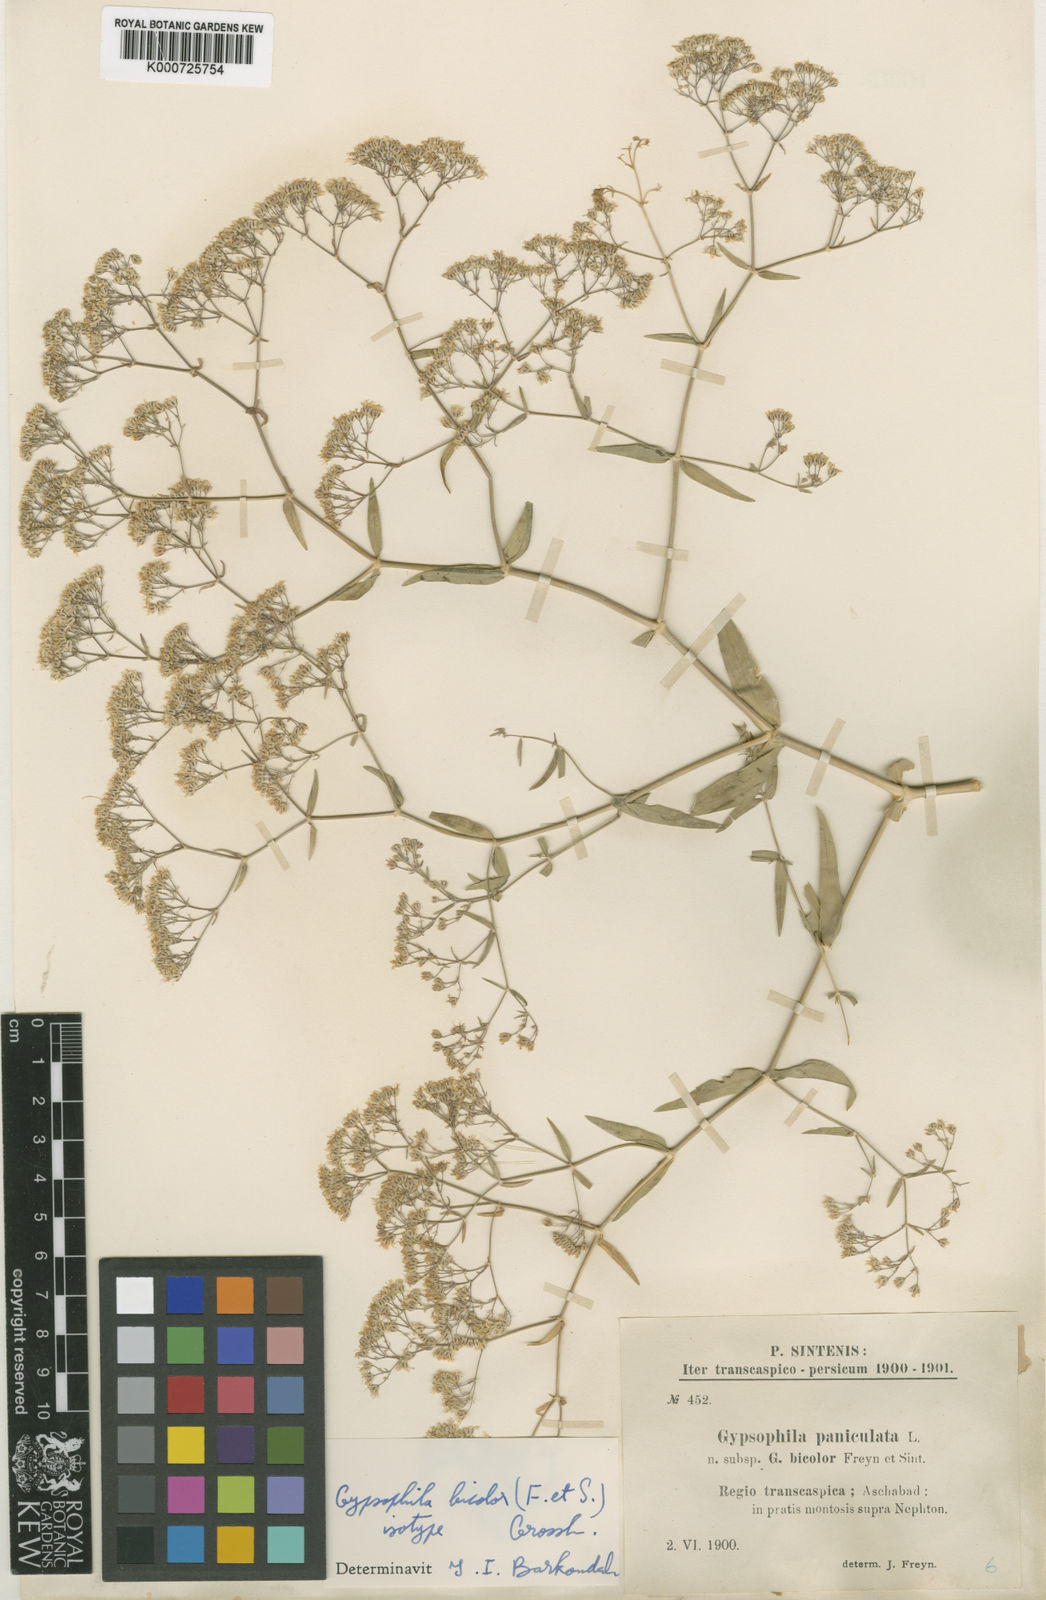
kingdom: Plantae
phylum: Tracheophyta
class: Magnoliopsida
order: Caryophyllales
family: Caryophyllaceae
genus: Gypsophila
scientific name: Gypsophila bicolor
